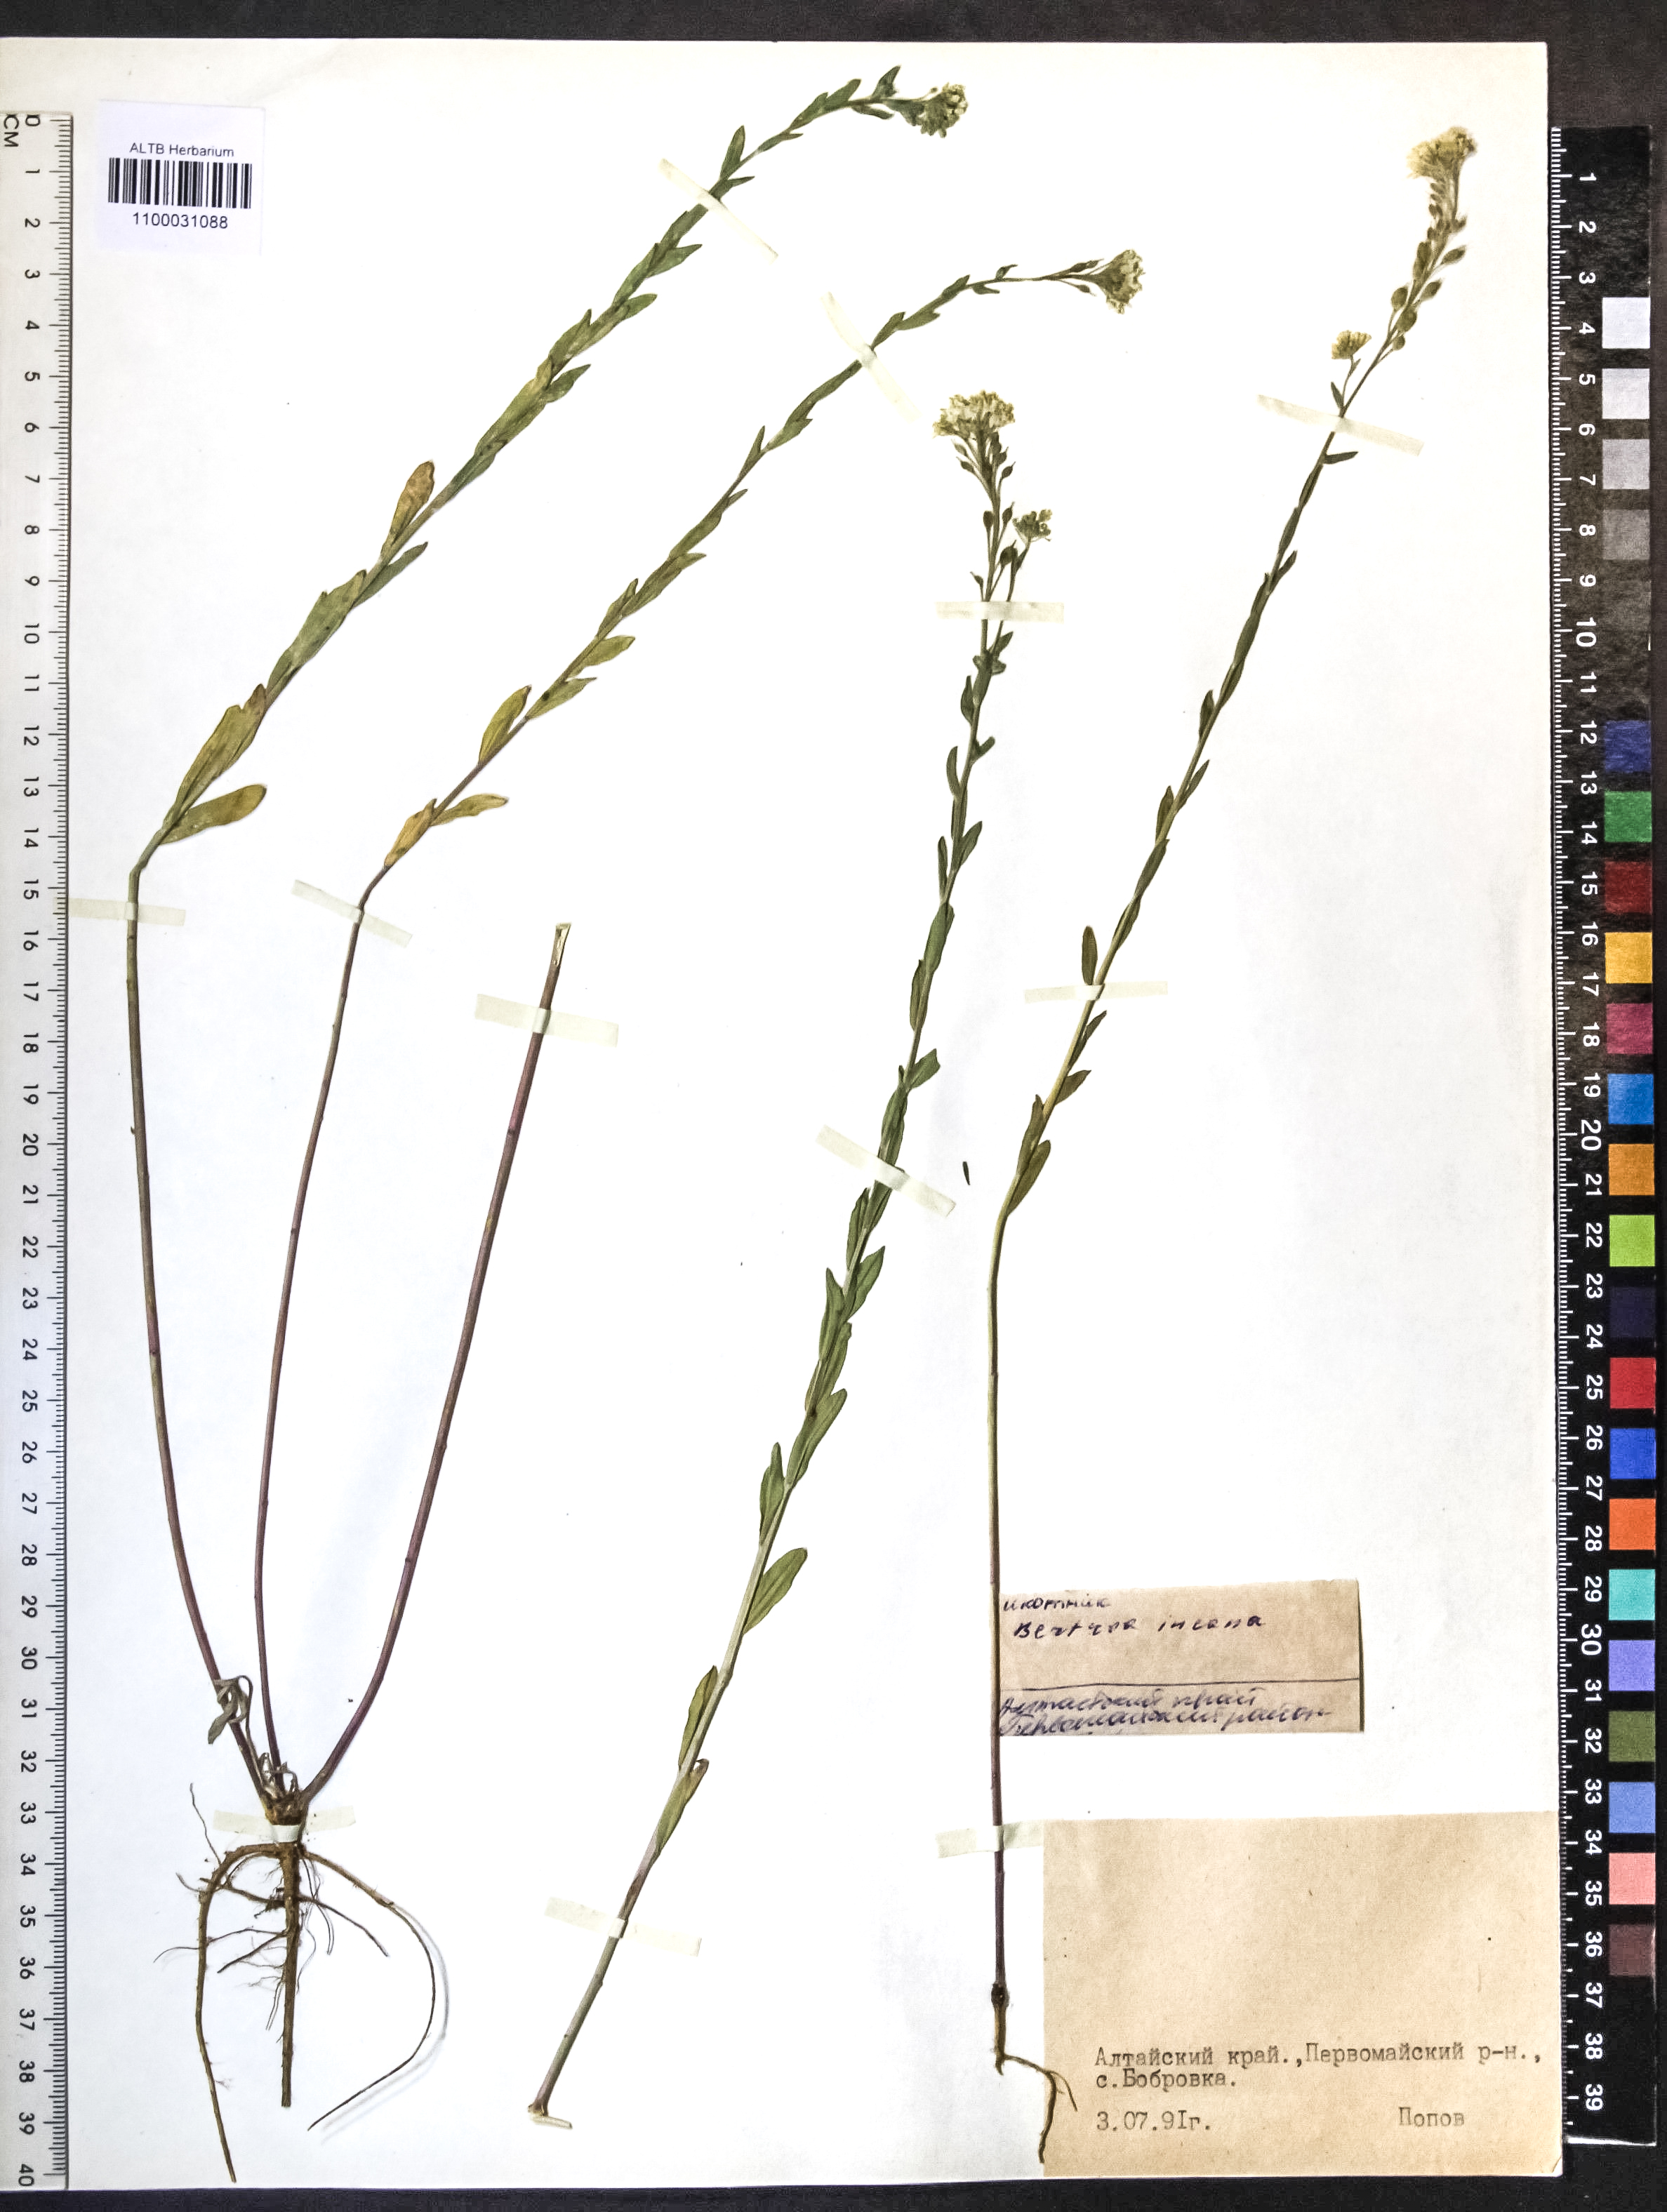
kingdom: Plantae
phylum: Tracheophyta
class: Magnoliopsida
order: Brassicales
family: Brassicaceae
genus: Berteroa
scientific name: Berteroa incana
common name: Hoary alison
